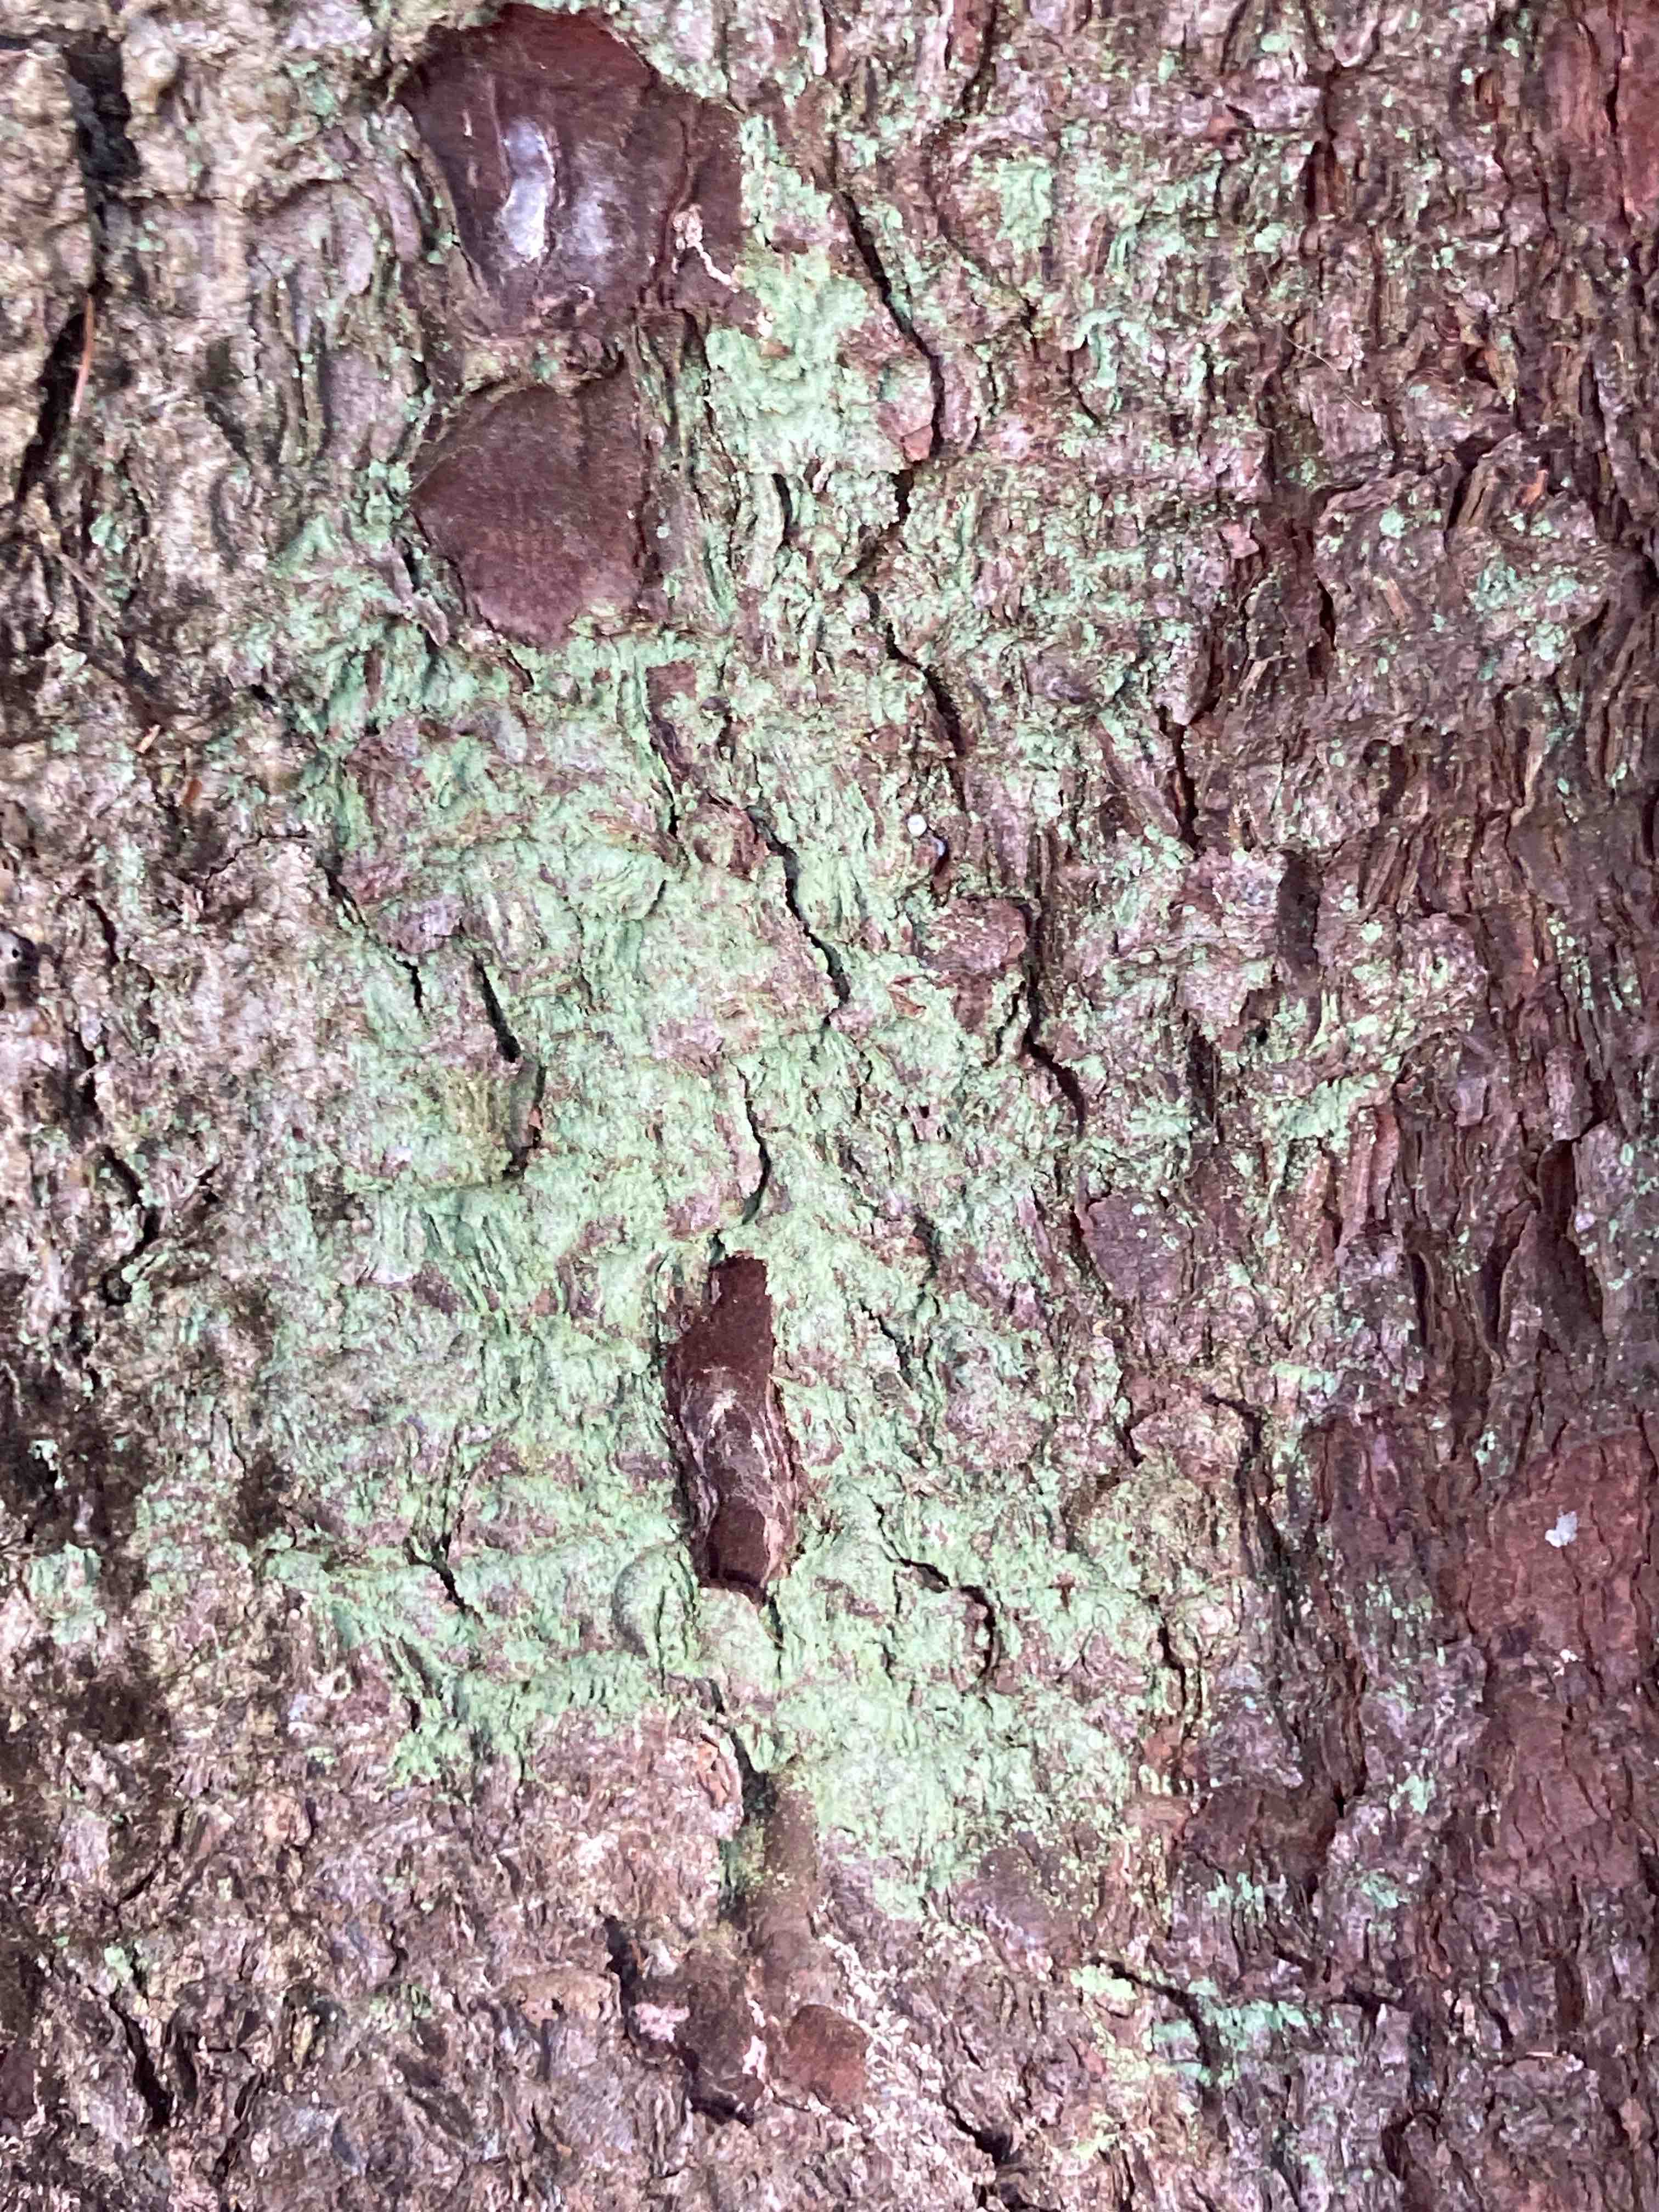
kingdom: Fungi
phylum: Ascomycota
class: Lecanoromycetes
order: Lecanorales
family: Stereocaulaceae
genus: Lepraria
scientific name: Lepraria
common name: støvlav
